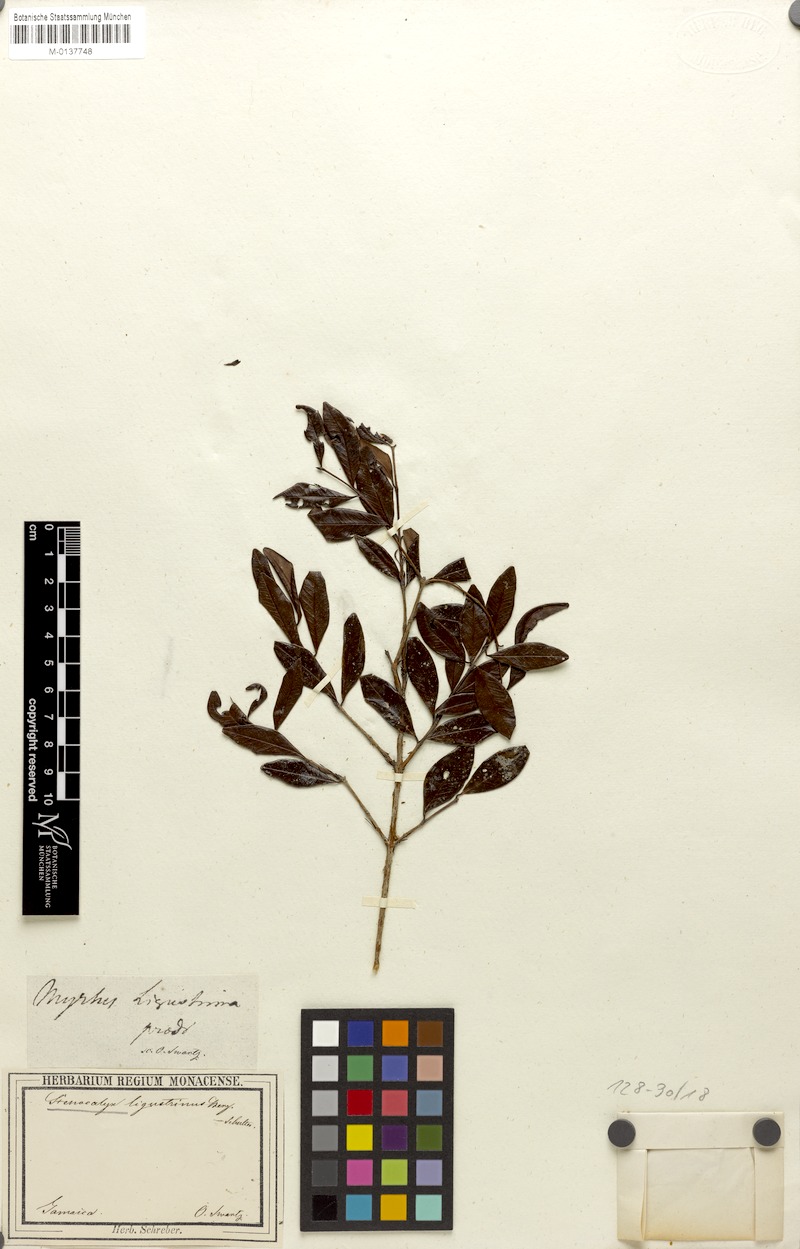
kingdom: Plantae
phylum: Tracheophyta
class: Magnoliopsida
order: Myrtales
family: Myrtaceae
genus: Eugenia
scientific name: Eugenia ligustrina
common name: Privet stopper
